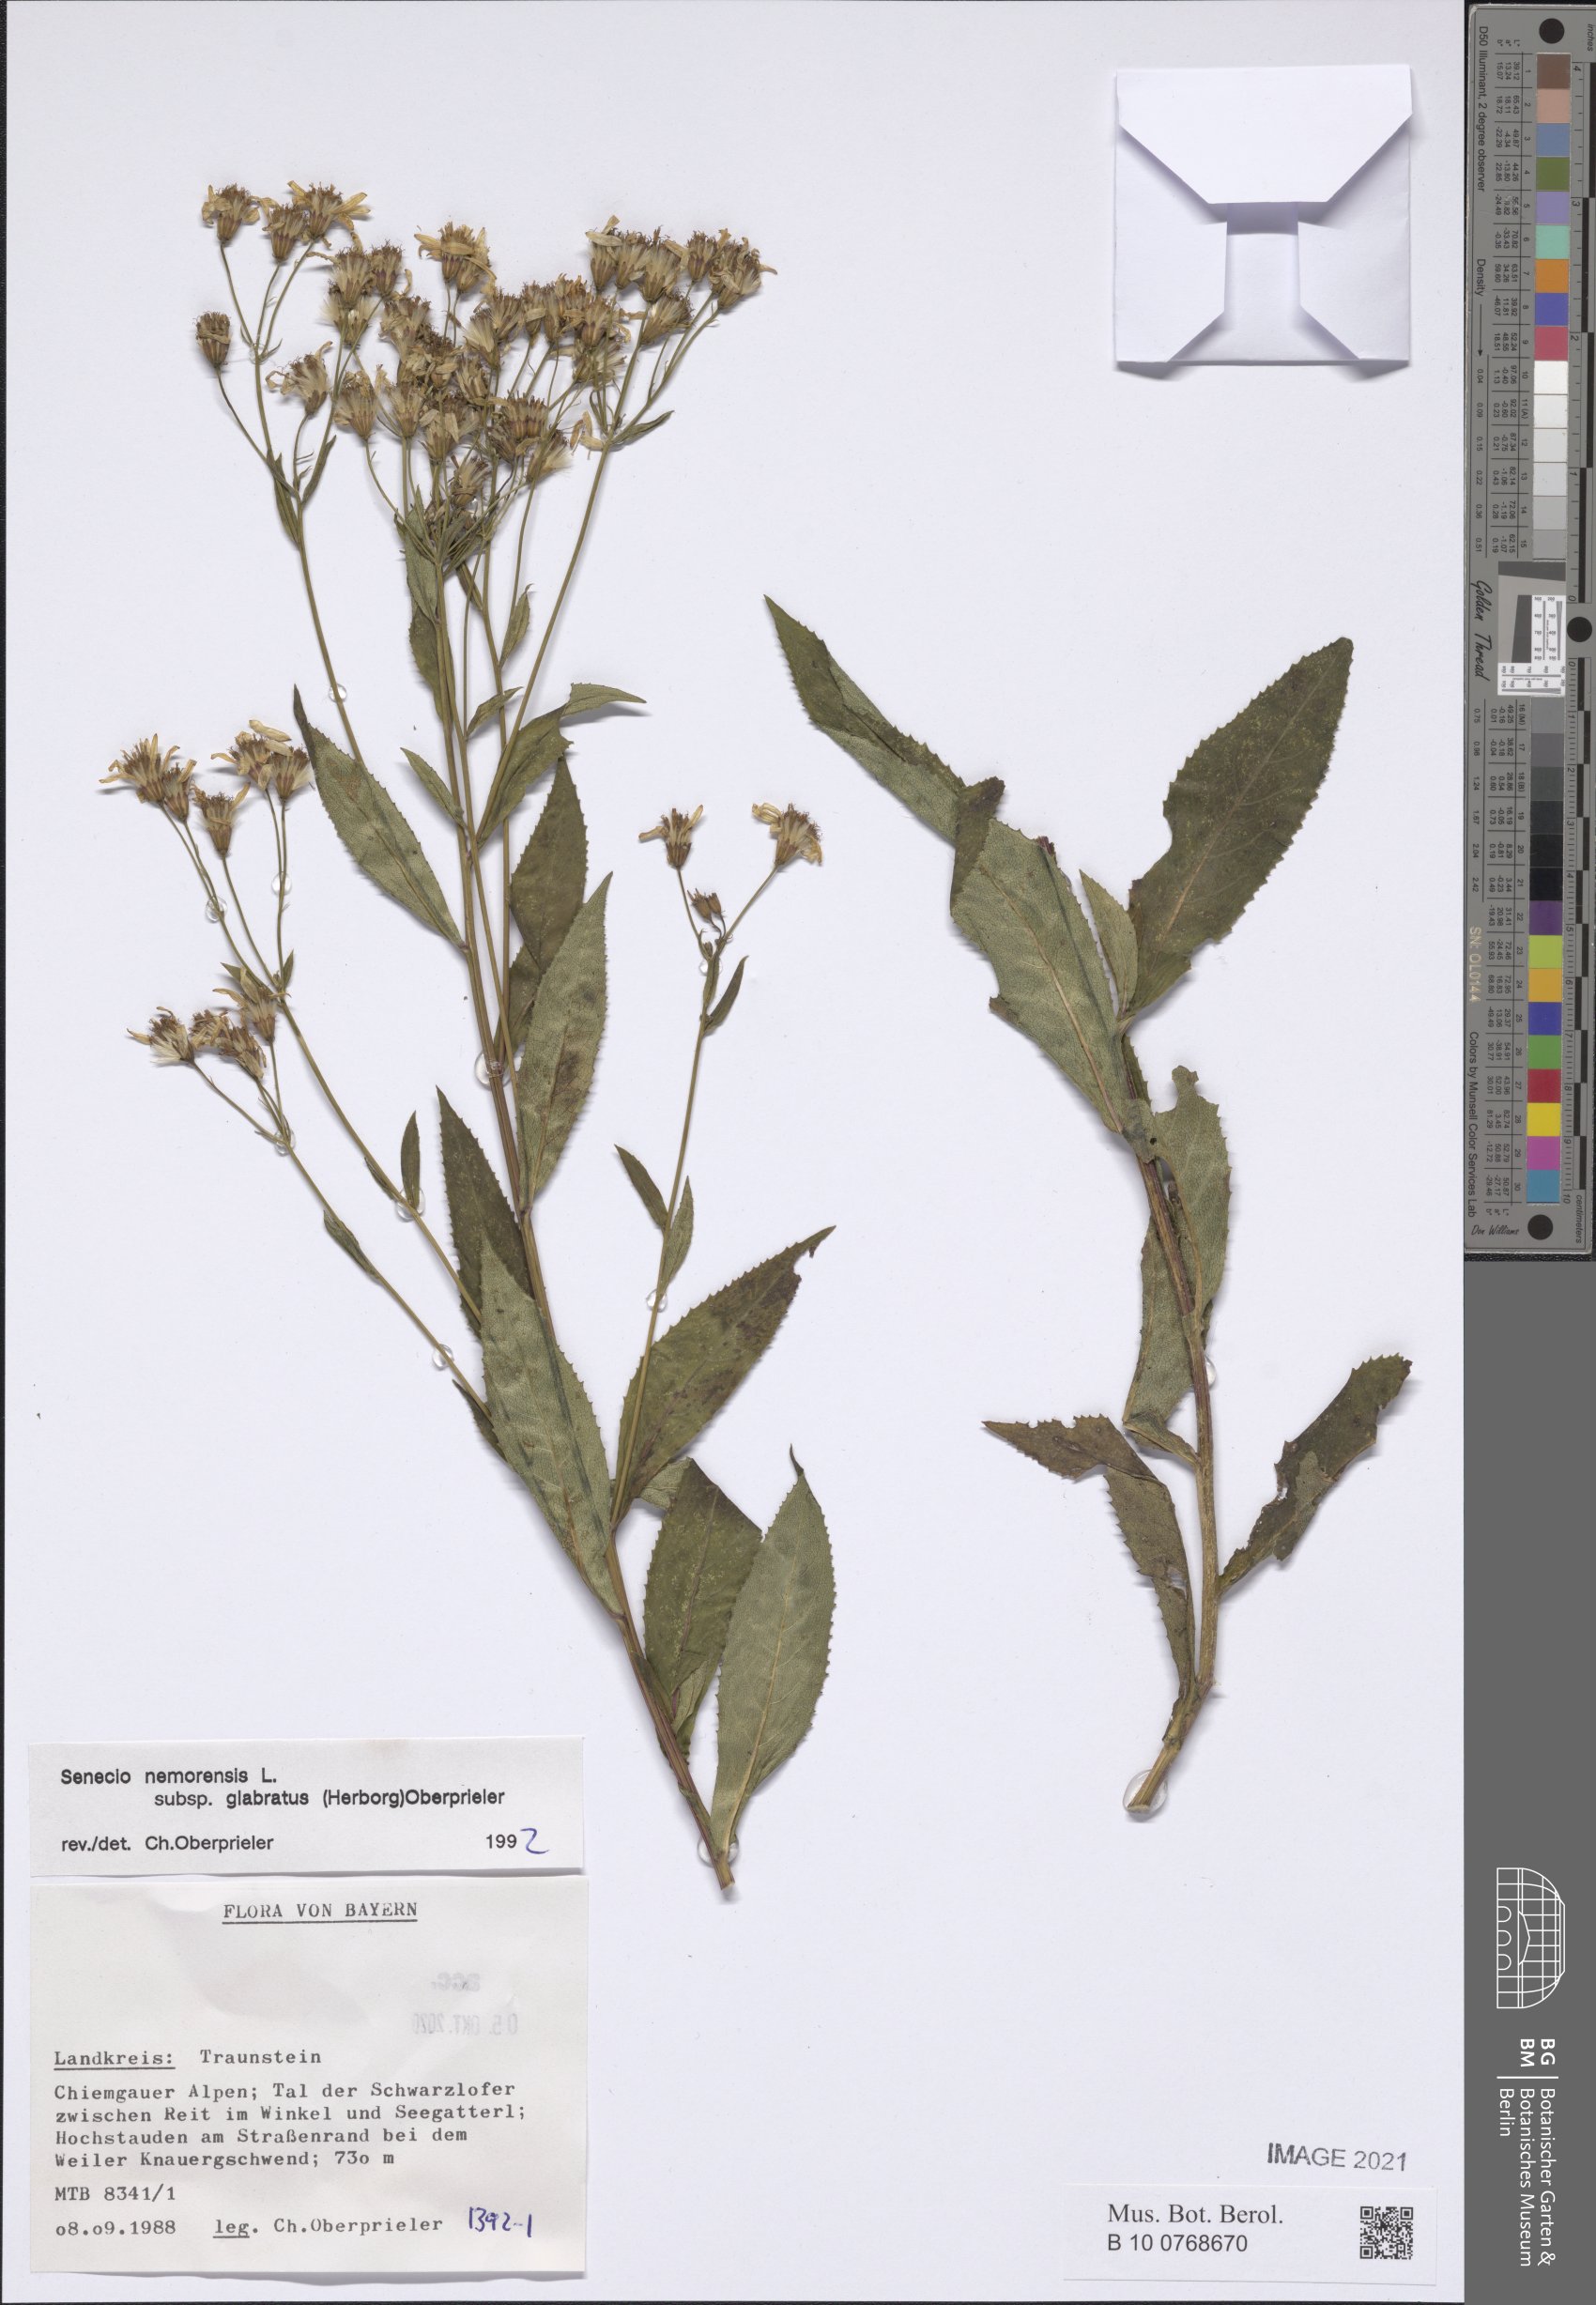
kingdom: Plantae
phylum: Tracheophyta
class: Magnoliopsida
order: Asterales
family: Asteraceae
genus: Senecio
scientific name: Senecio germanicus
